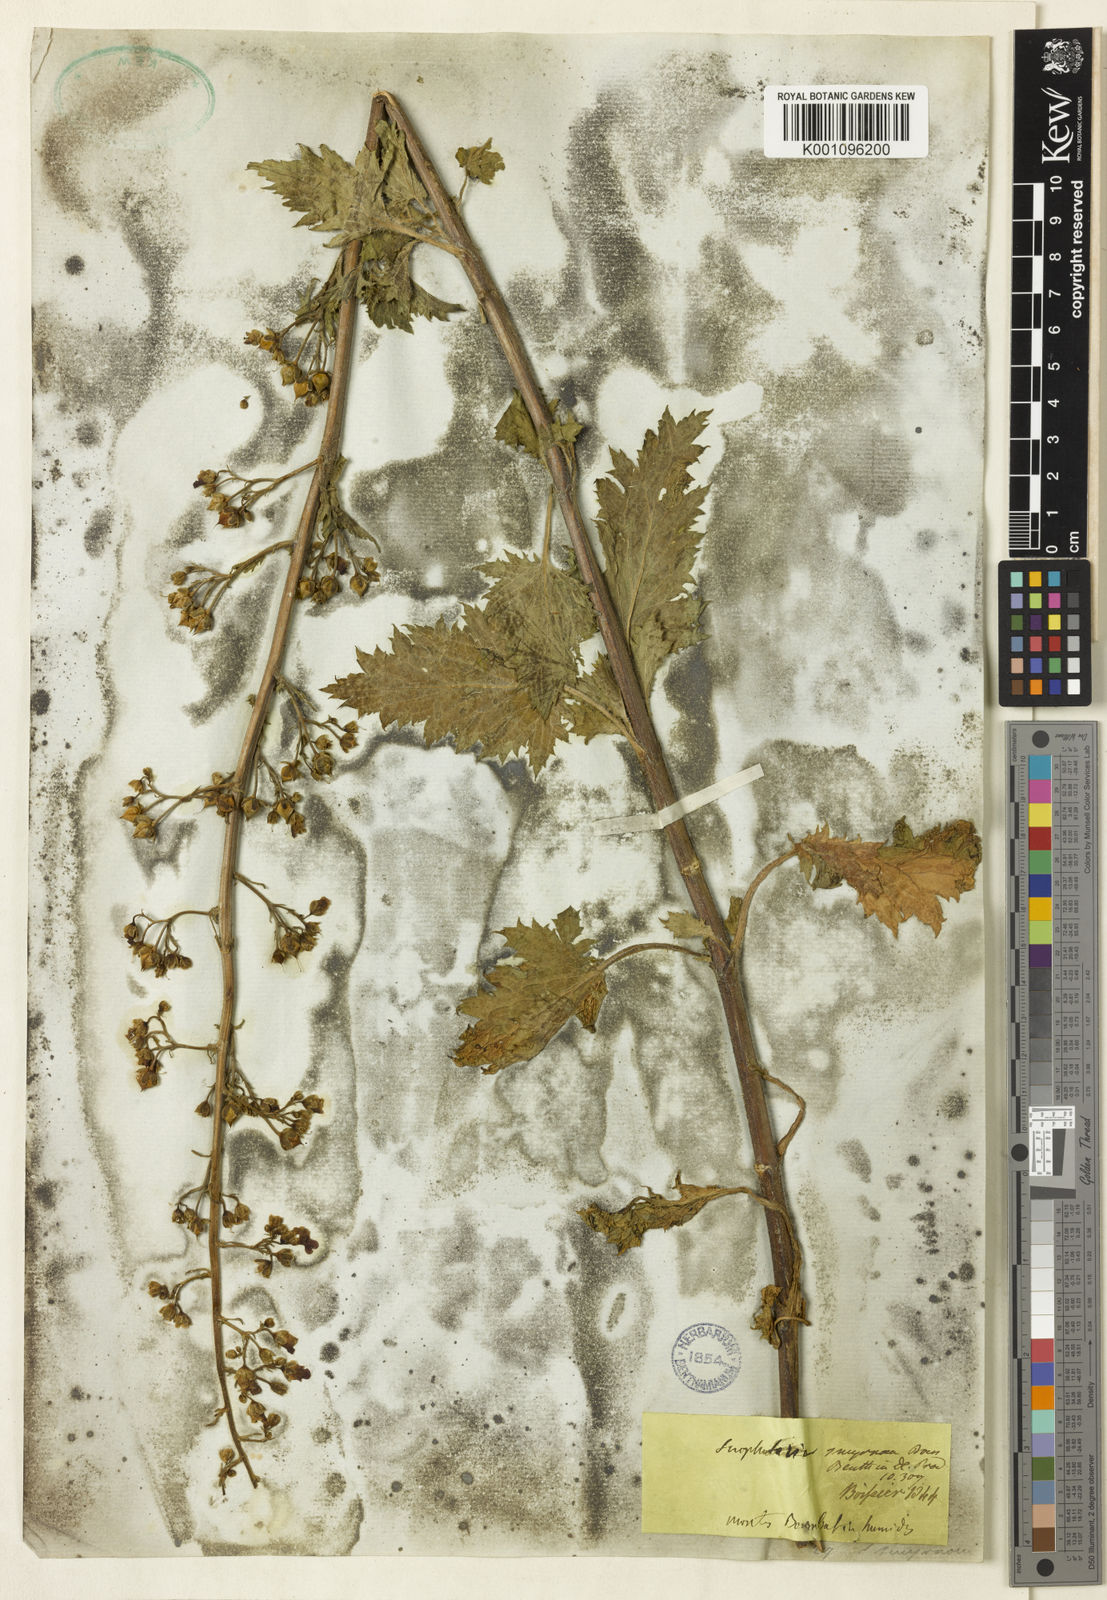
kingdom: Plantae
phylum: Tracheophyta
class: Magnoliopsida
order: Lamiales
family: Scrophulariaceae
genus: Scrophularia
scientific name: Scrophularia scopolii
